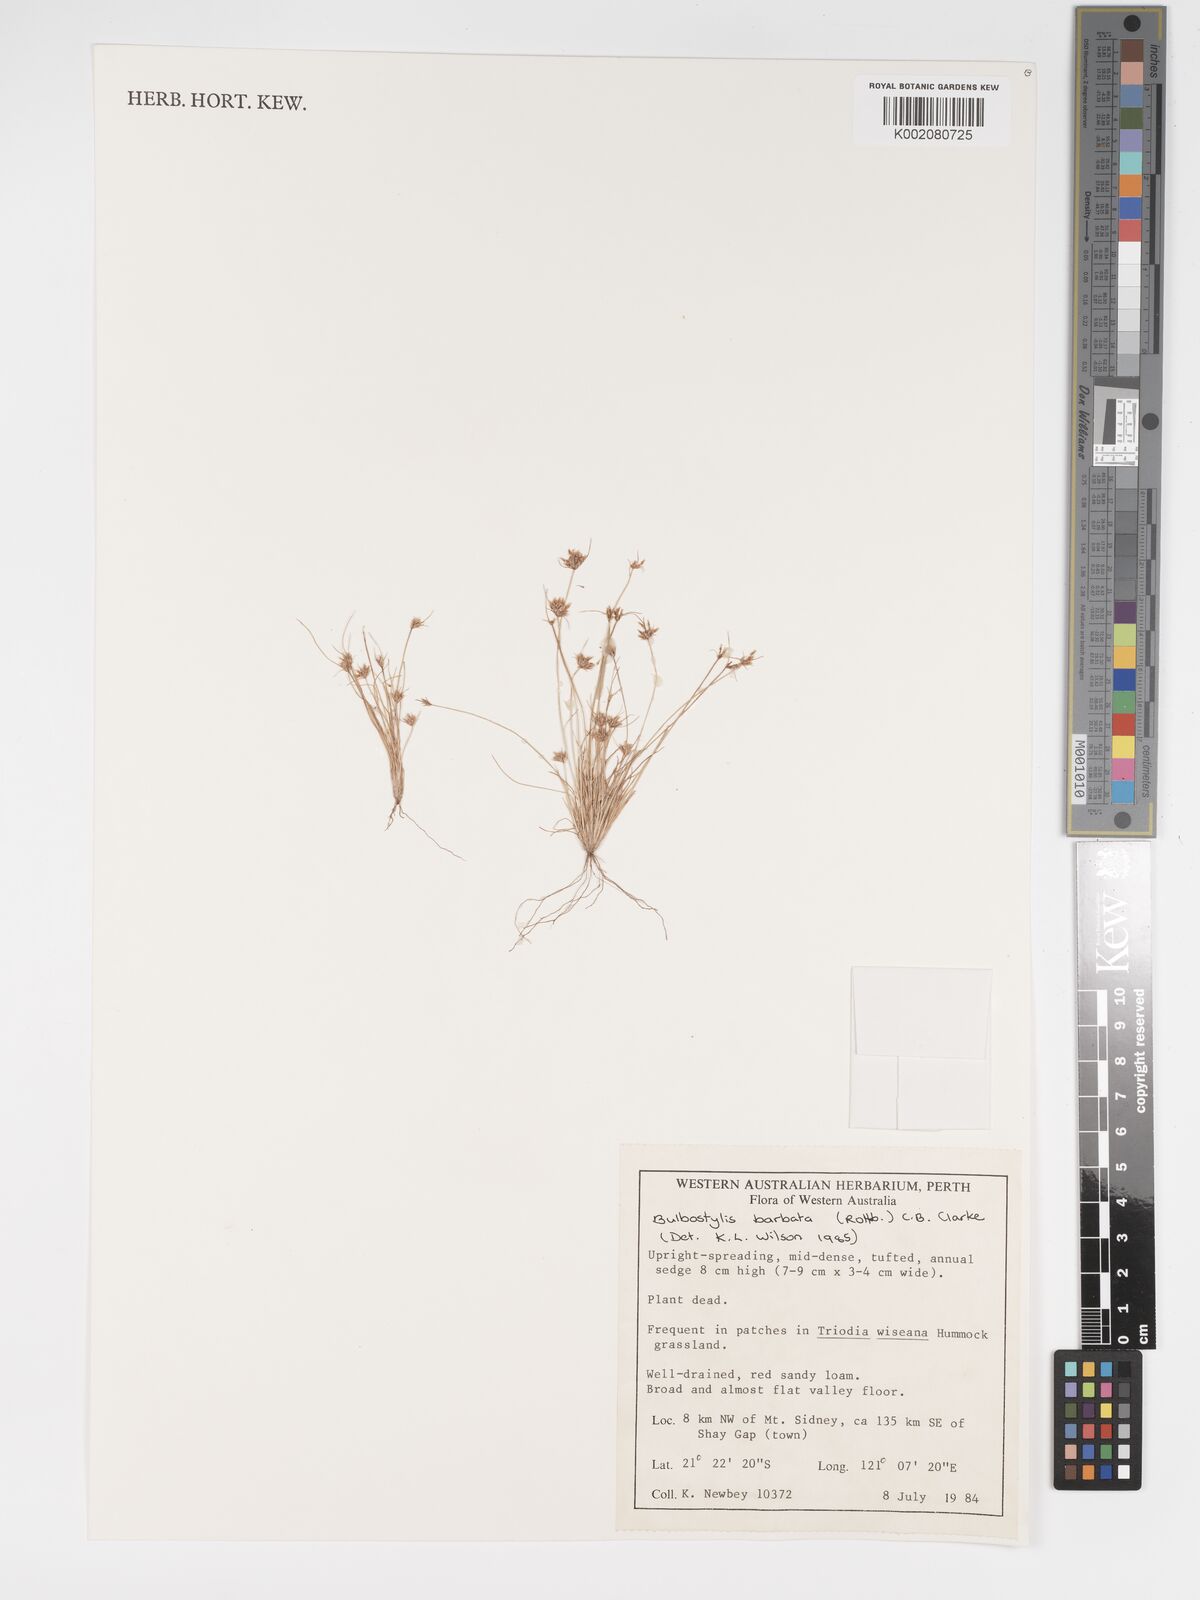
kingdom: Plantae
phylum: Tracheophyta
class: Liliopsida
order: Poales
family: Cyperaceae
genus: Bulbostylis
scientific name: Bulbostylis barbata
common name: Watergrass
